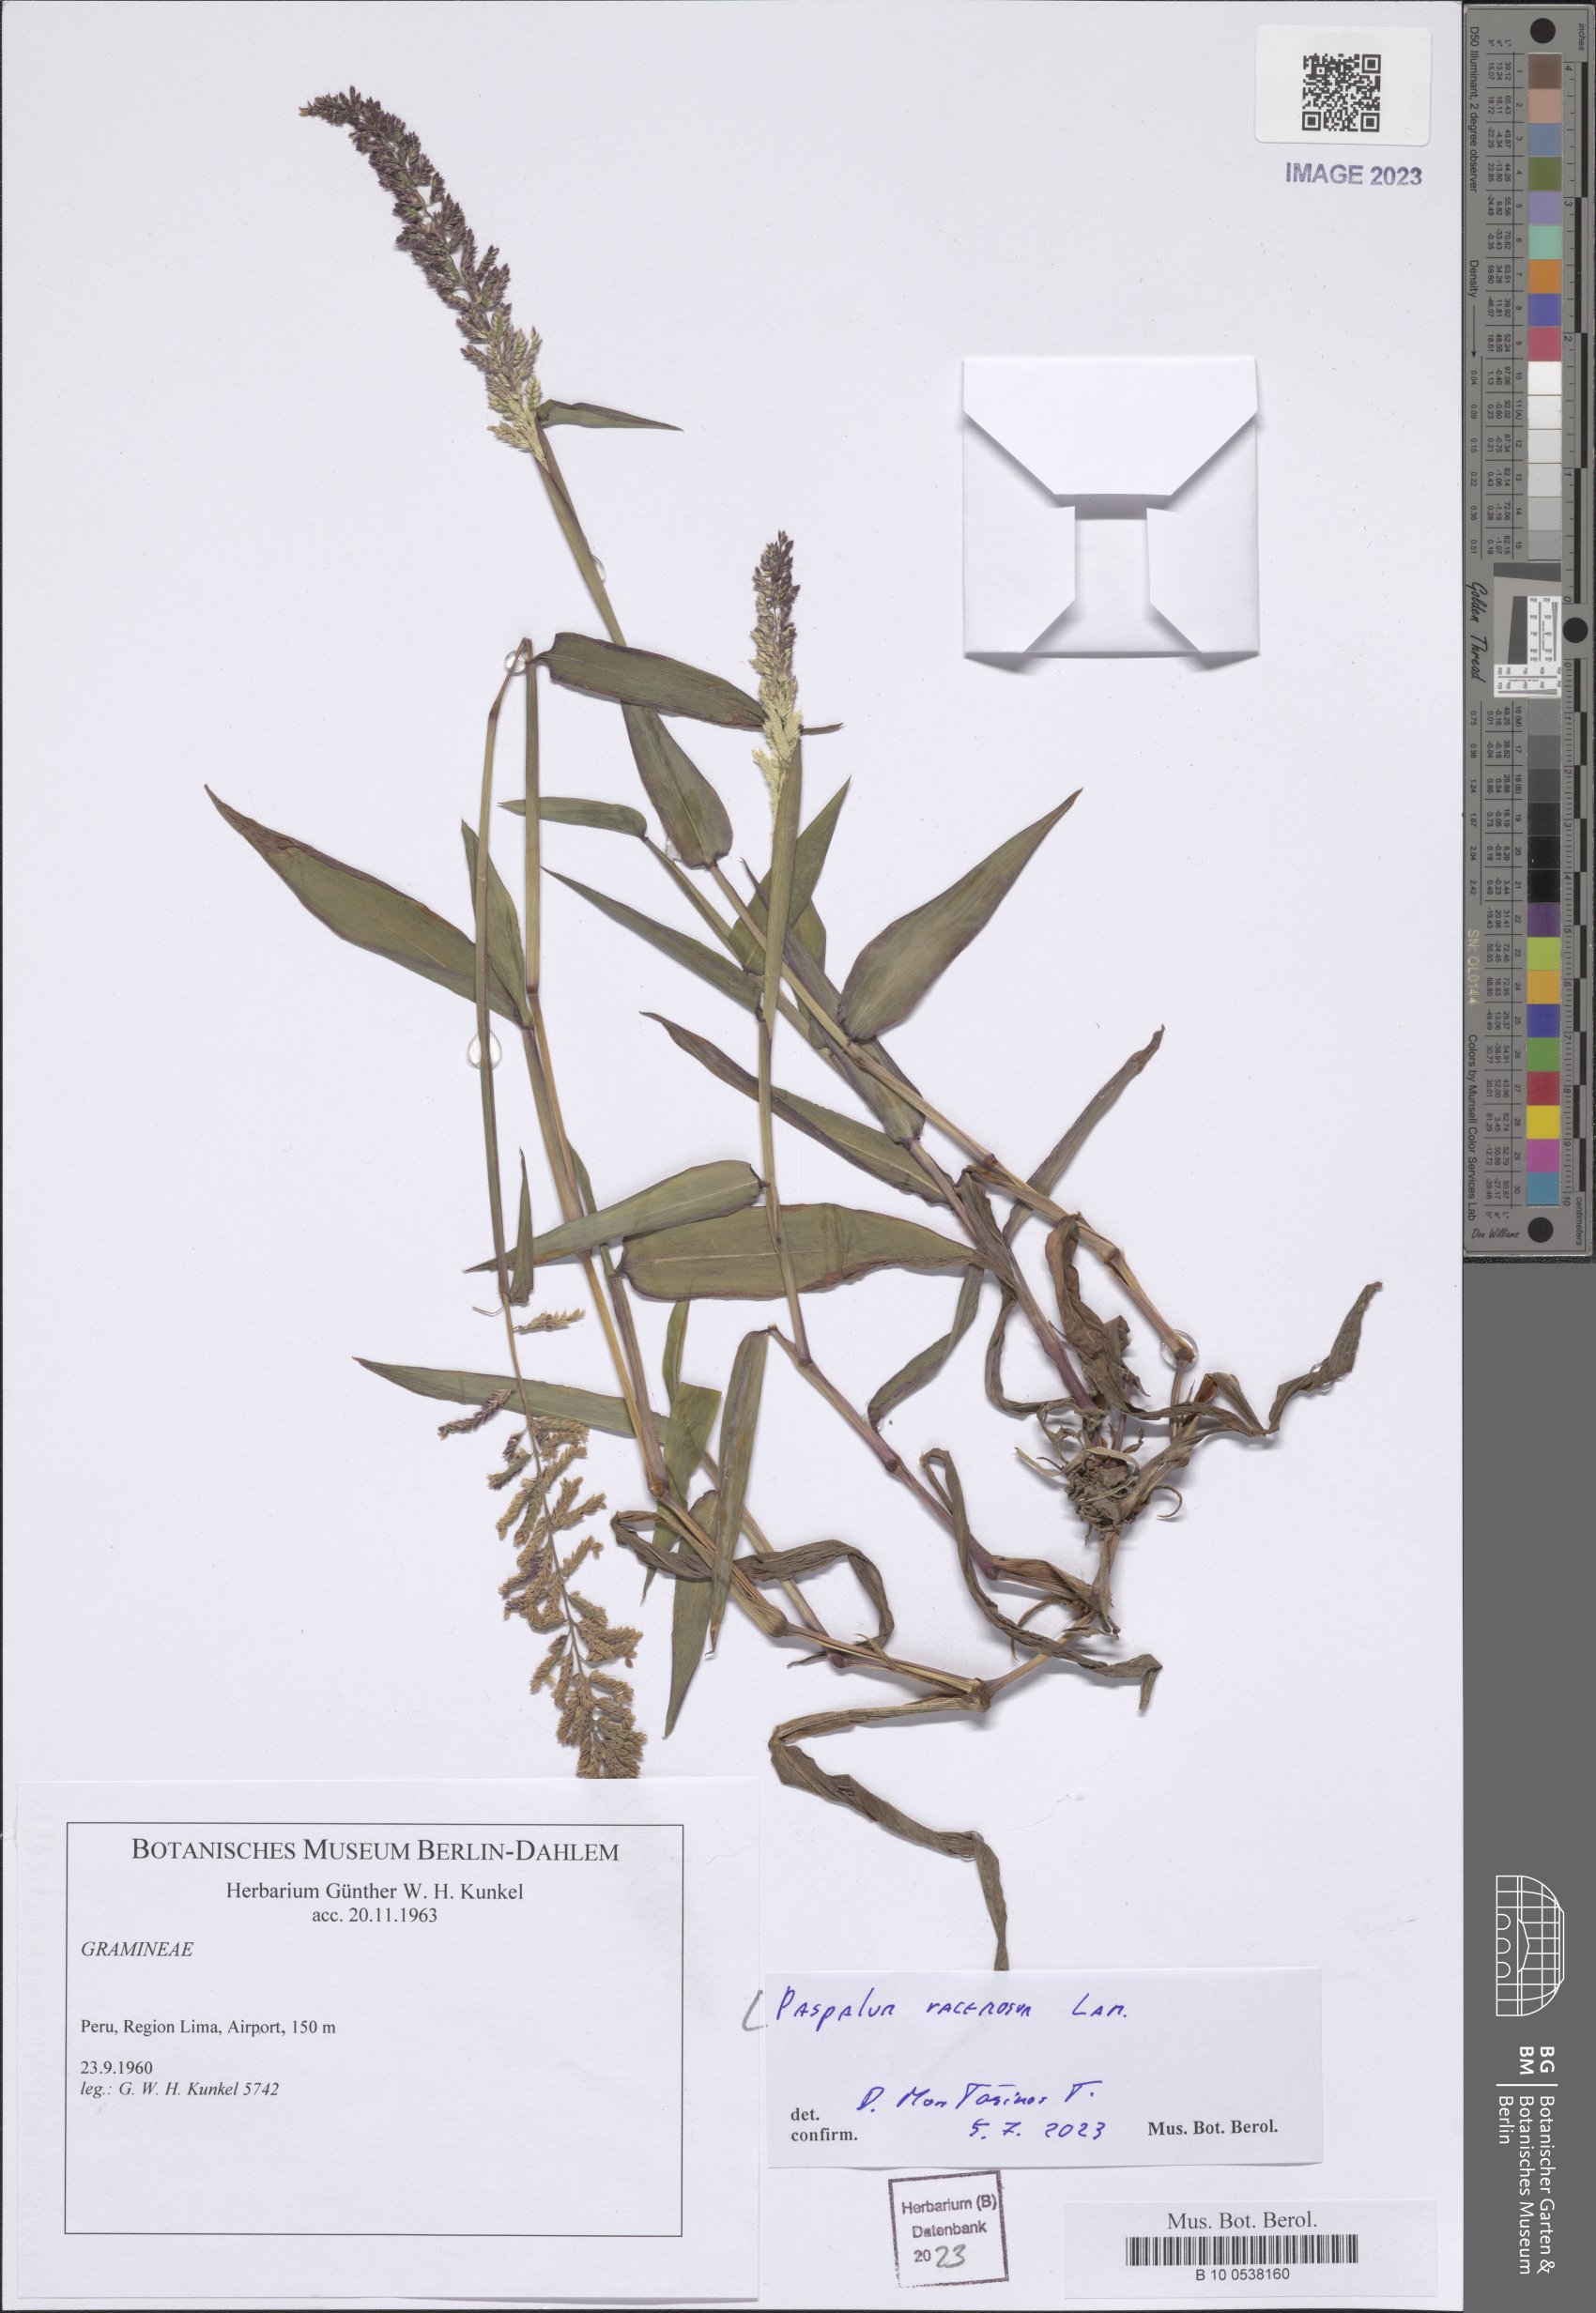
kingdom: Plantae
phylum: Tracheophyta
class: Liliopsida
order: Poales
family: Poaceae
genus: Paspalum
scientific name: Paspalum racemosum
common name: Peruvian paspalum
